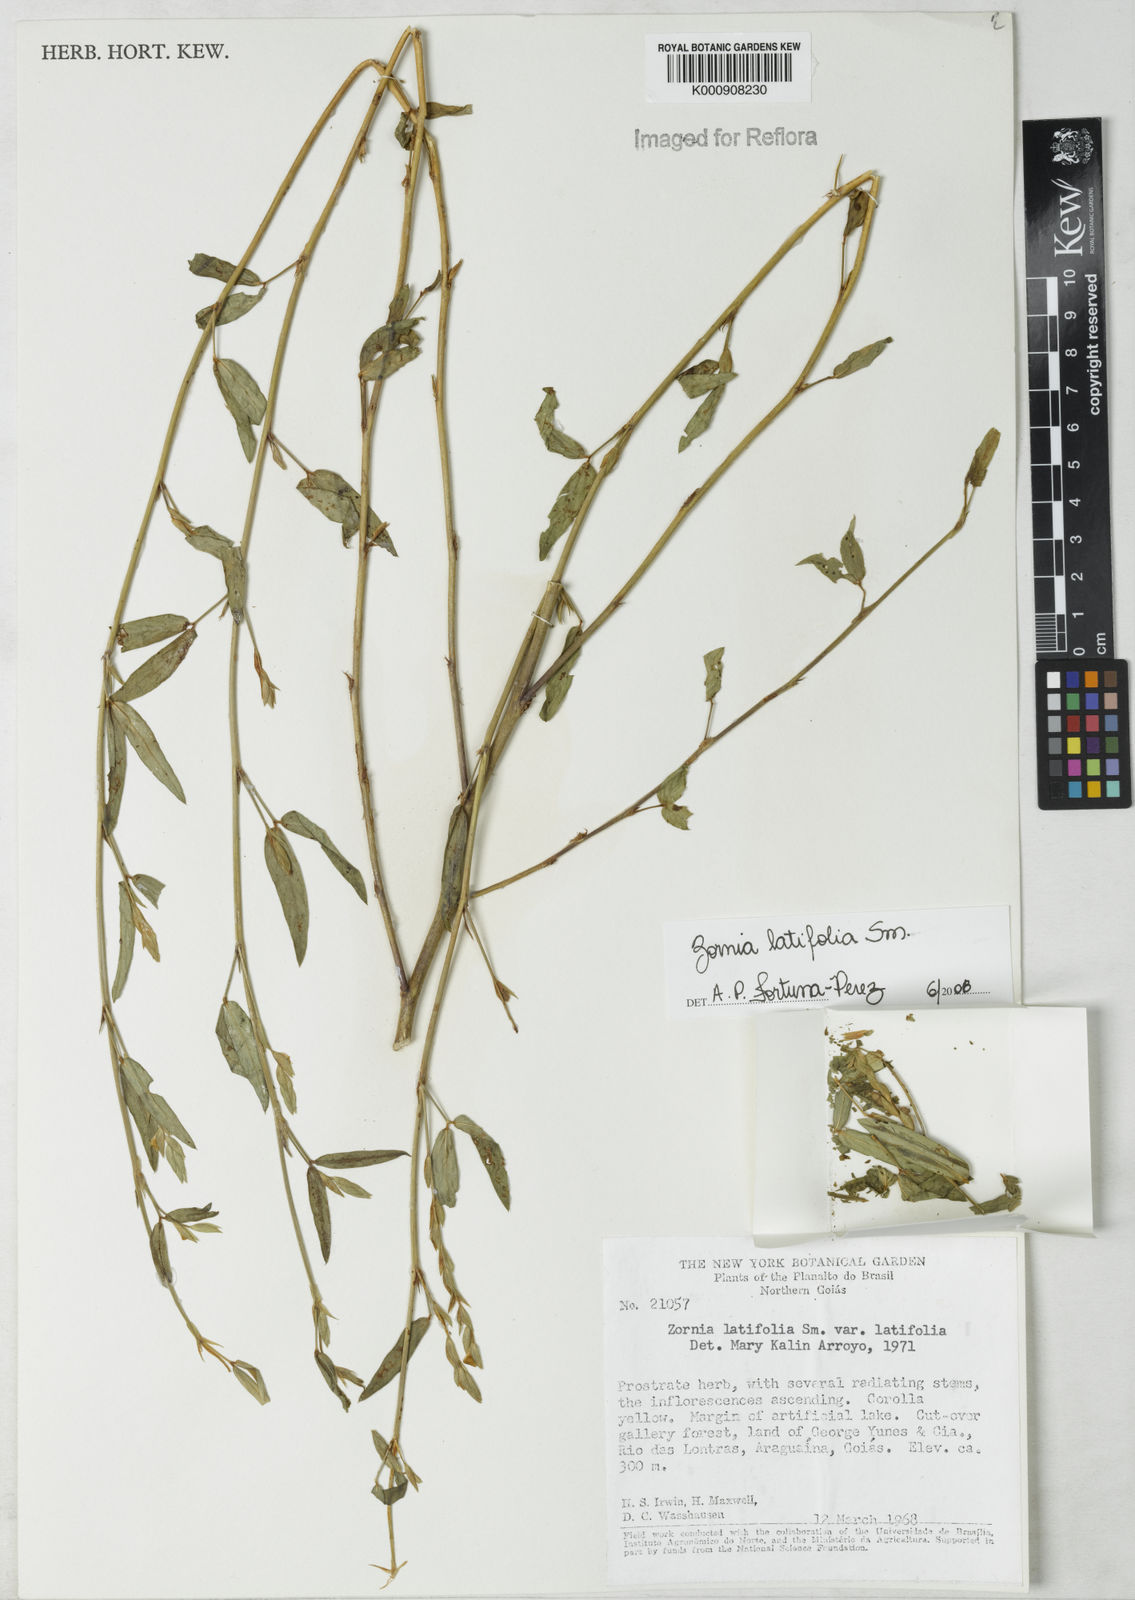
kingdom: Plantae
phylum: Tracheophyta
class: Magnoliopsida
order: Fabales
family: Fabaceae
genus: Zornia
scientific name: Zornia latifolia
